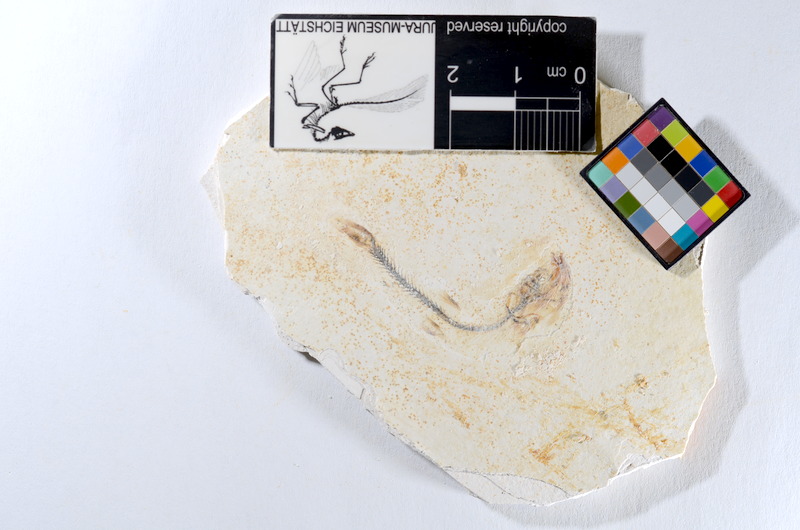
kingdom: Animalia
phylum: Chordata
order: Salmoniformes
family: Orthogonikleithridae
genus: Orthogonikleithrus
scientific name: Orthogonikleithrus hoelli
